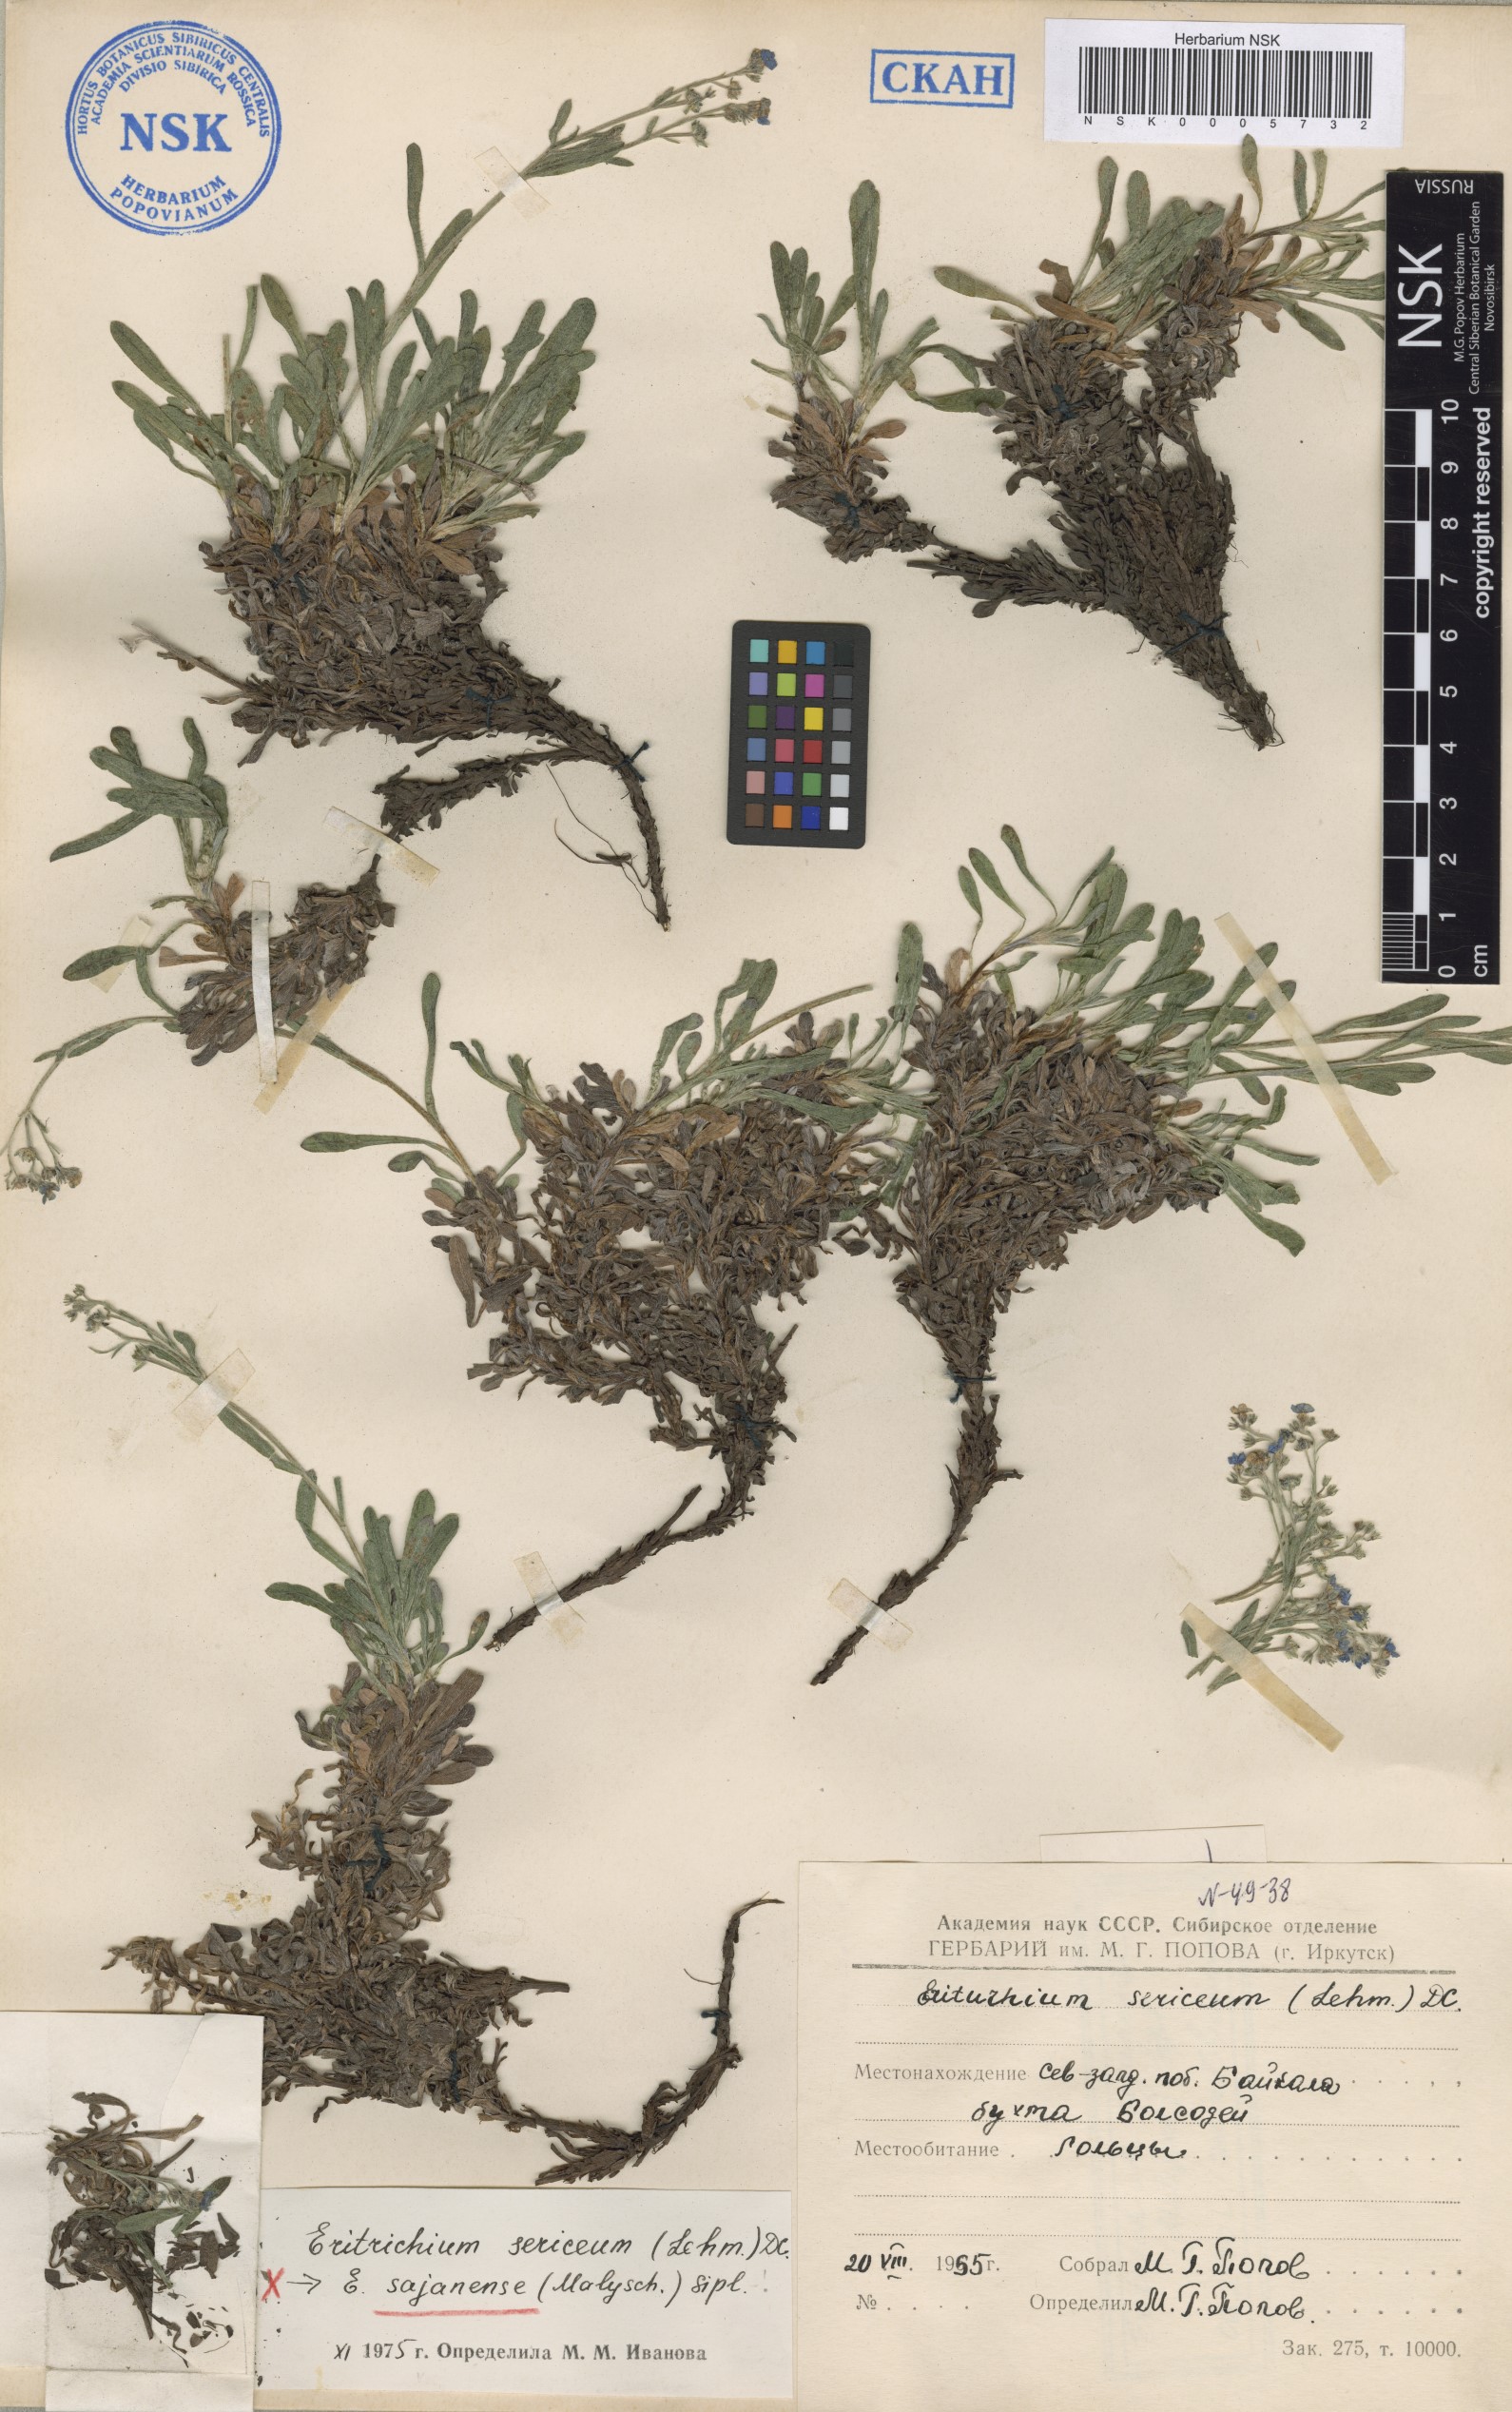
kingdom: Plantae
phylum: Tracheophyta
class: Magnoliopsida
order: Boraginales
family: Boraginaceae
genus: Eritrichium
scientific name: Eritrichium sajanense
